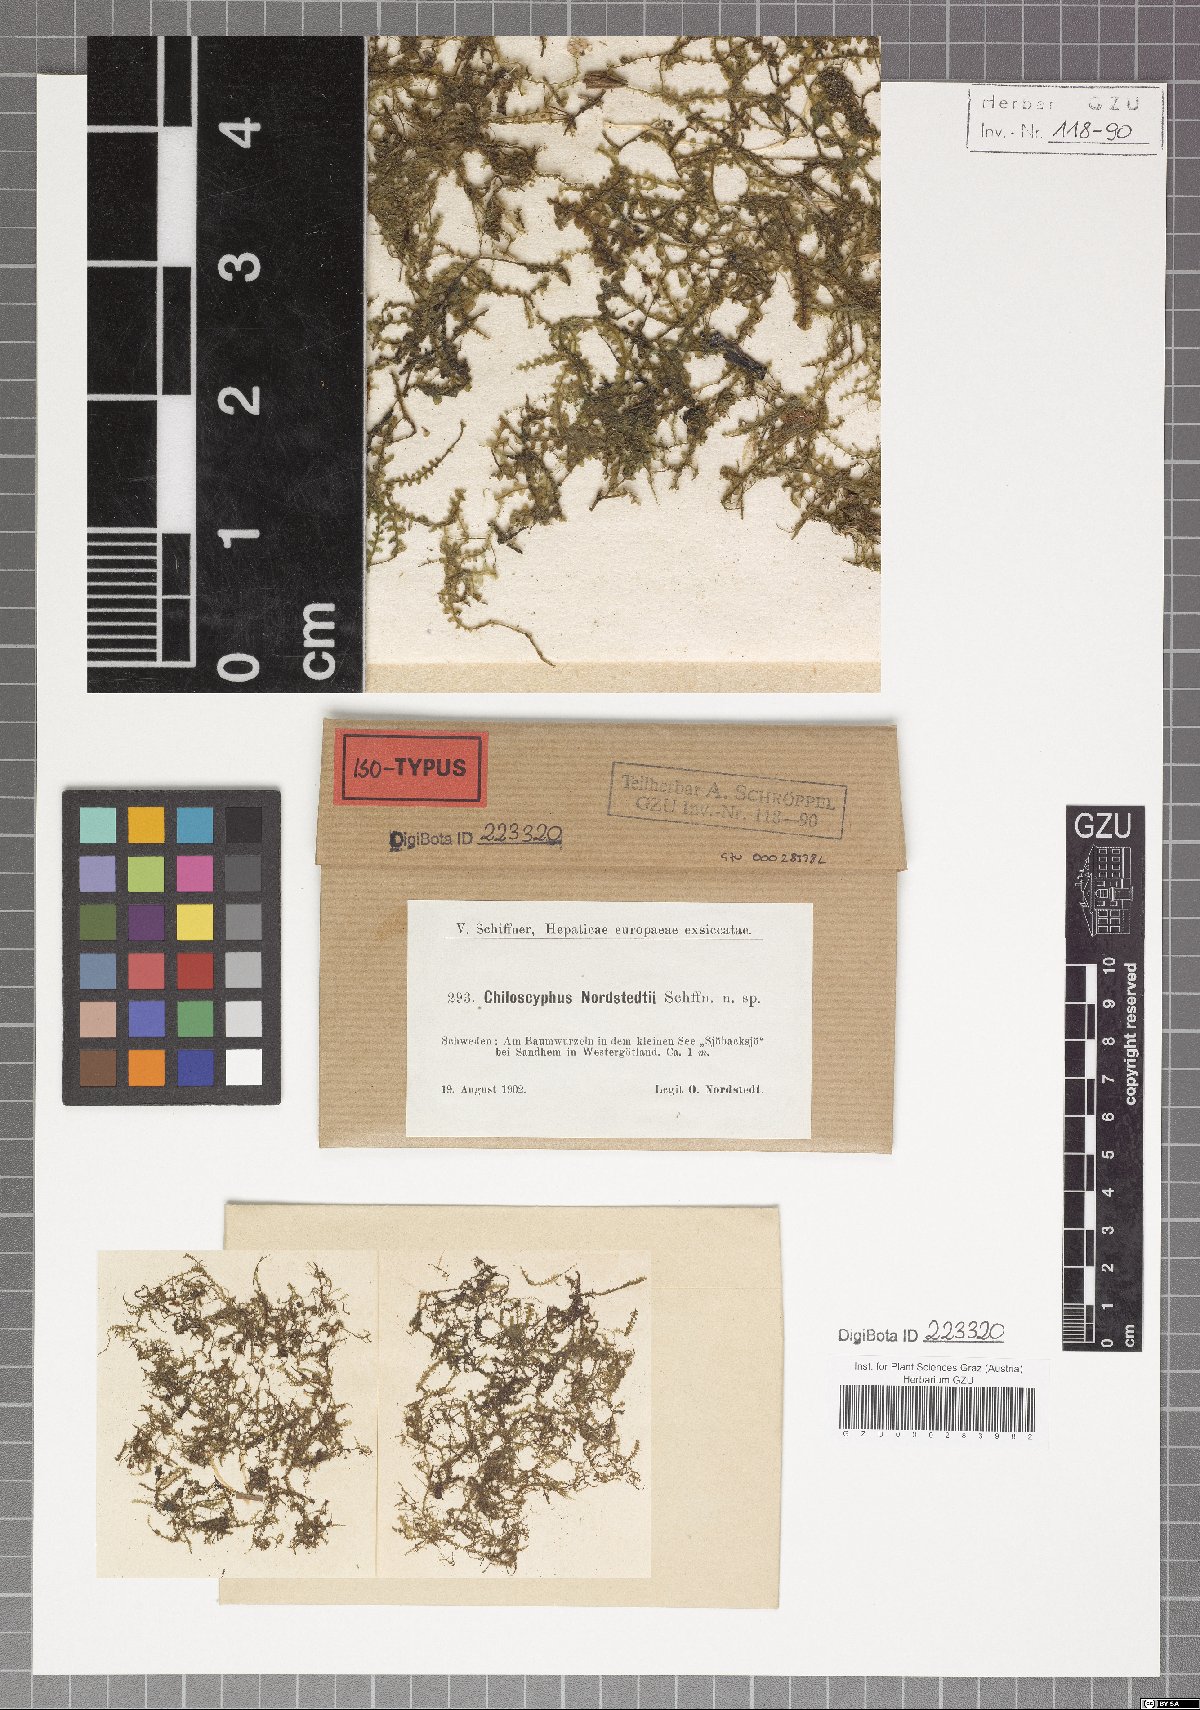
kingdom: Plantae
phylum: Marchantiophyta
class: Jungermanniopsida
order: Jungermanniales
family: Lophocoleaceae
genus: Chiloscyphus
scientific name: Chiloscyphus pallescens
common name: St winifrid's other moss
